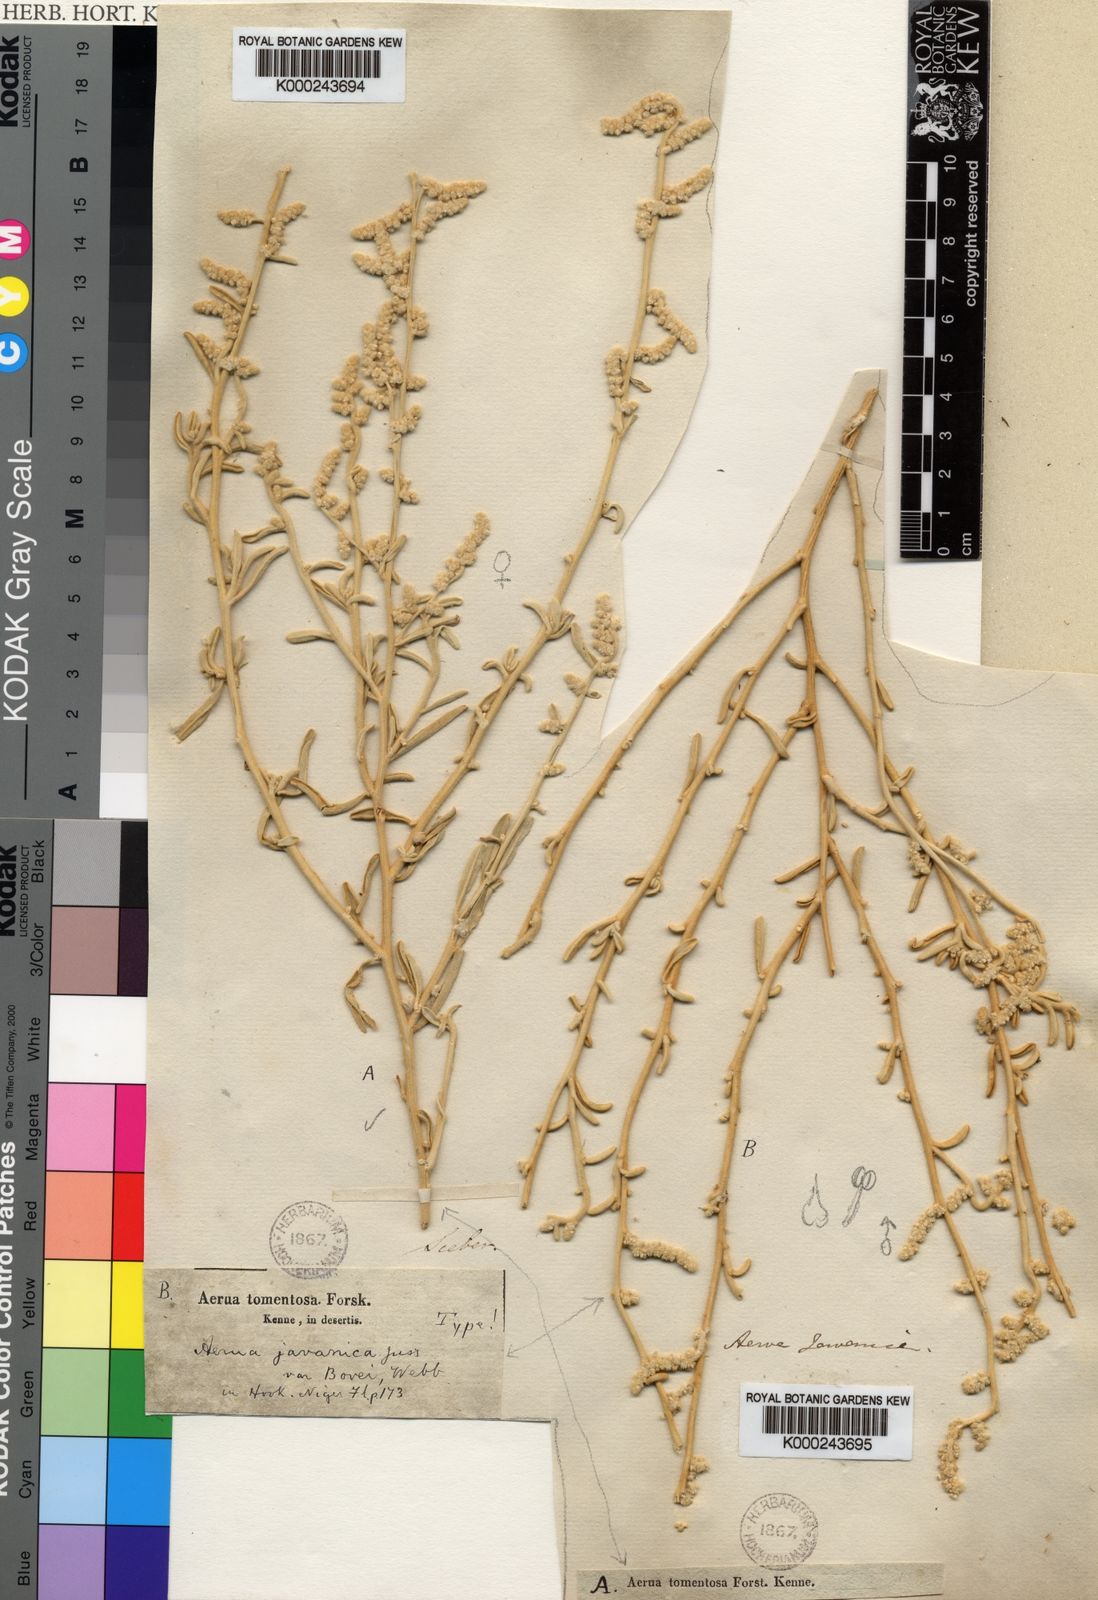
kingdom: Plantae
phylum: Tracheophyta
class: Magnoliopsida
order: Caryophyllales
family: Amaranthaceae
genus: Aerva
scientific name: Aerva javanica
